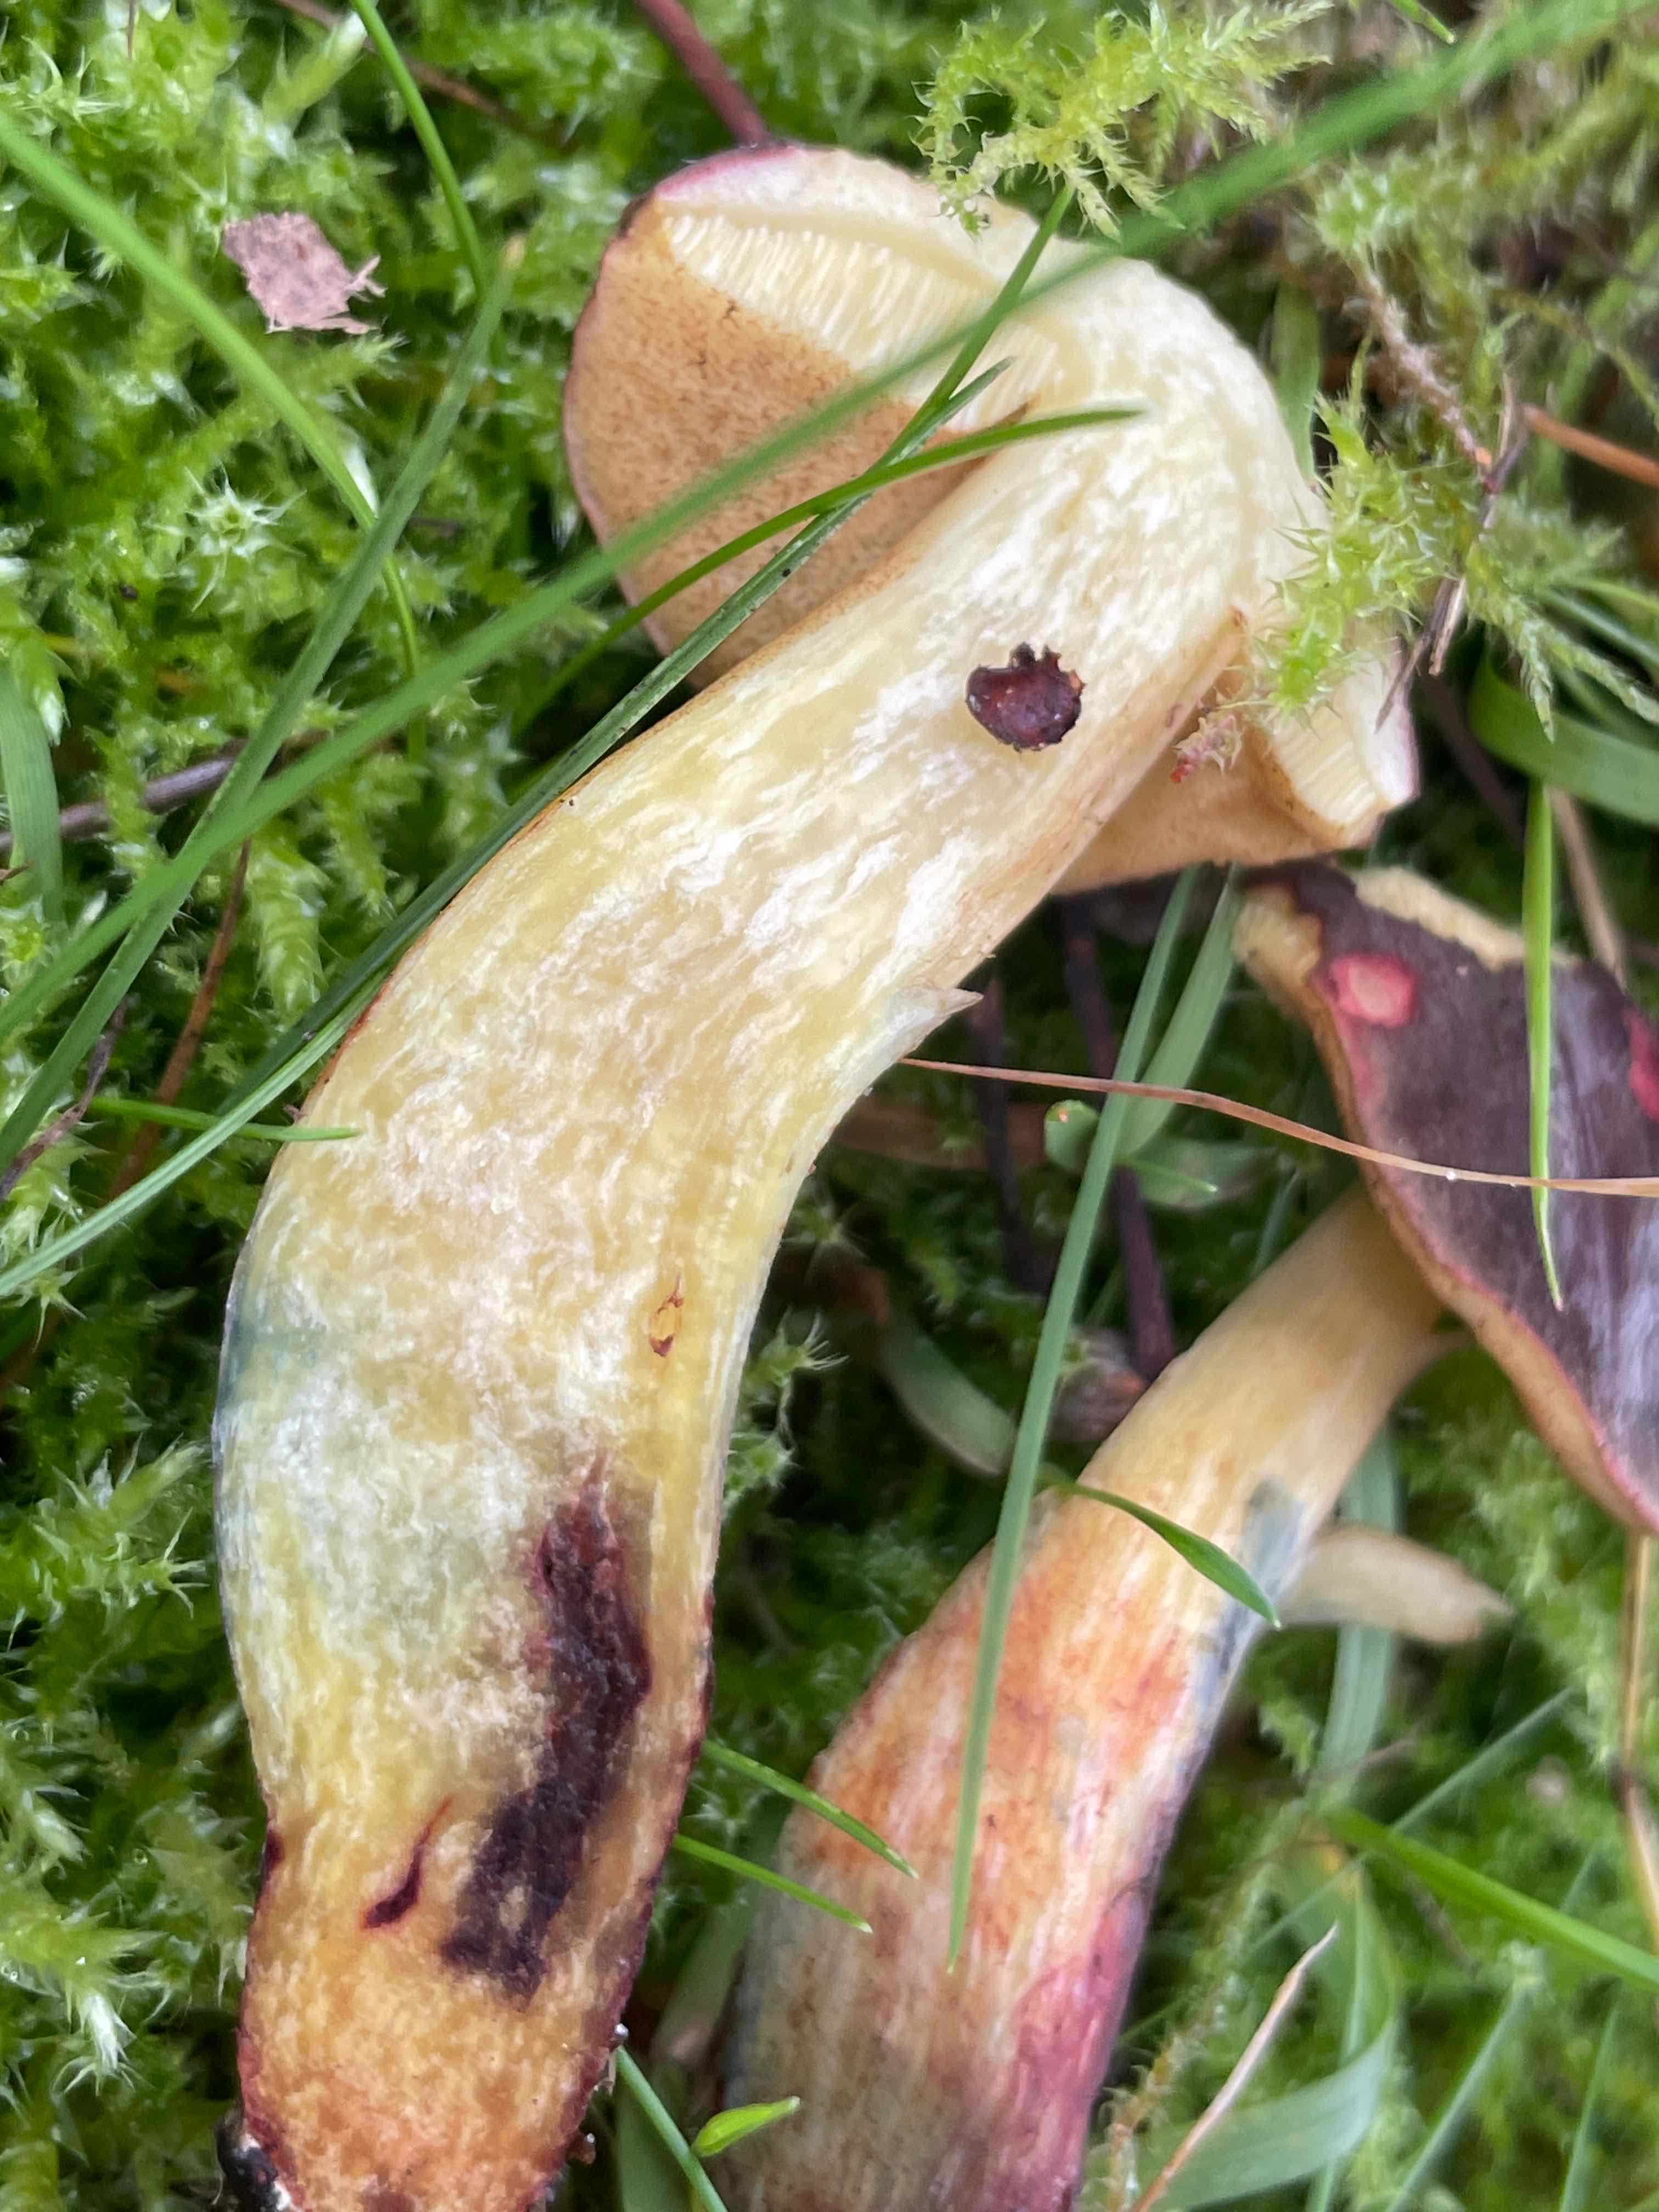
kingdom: Fungi
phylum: Basidiomycota
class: Agaricomycetes
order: Boletales
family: Boletaceae
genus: Xerocomellus
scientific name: Xerocomellus cisalpinus
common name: finsprukken rørhat
